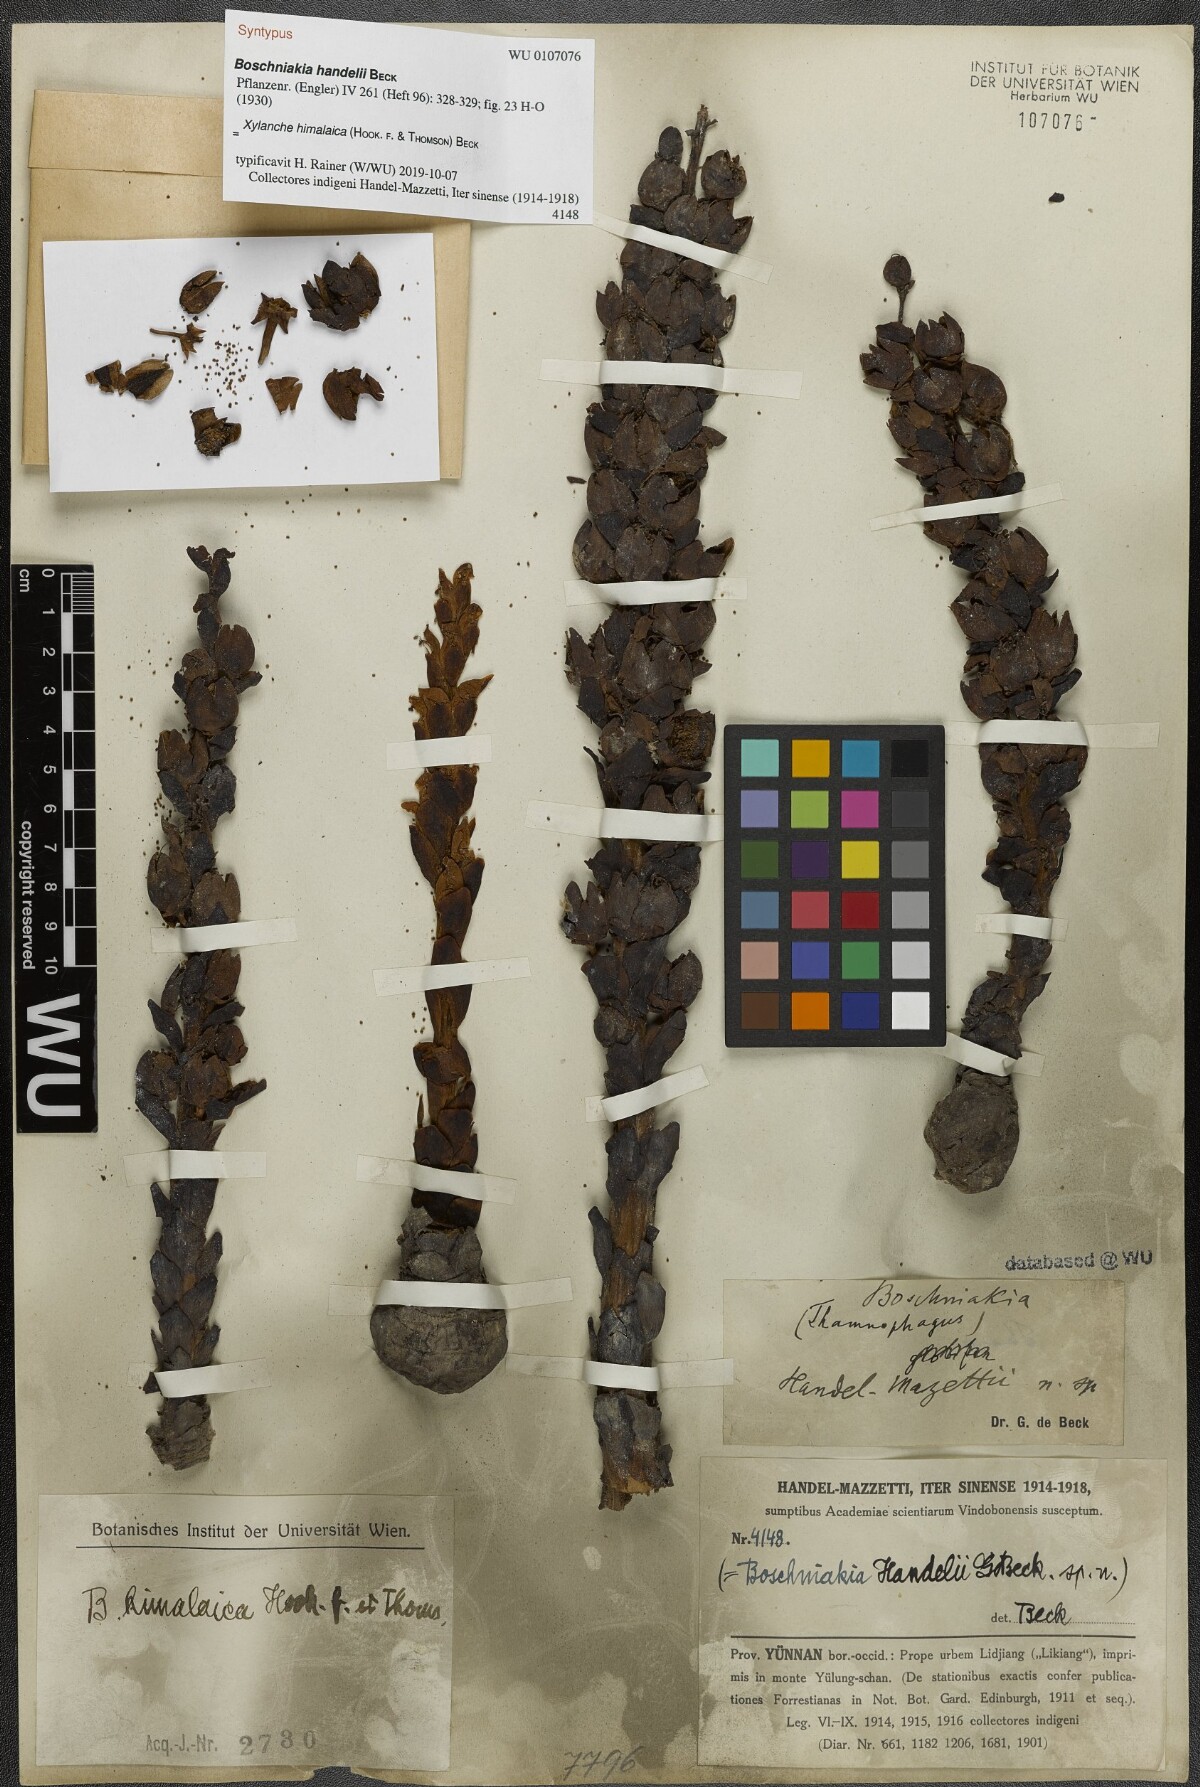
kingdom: Plantae
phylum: Tracheophyta
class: Magnoliopsida
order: Lamiales
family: Orobanchaceae
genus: Boschniakia
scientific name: Boschniakia himalaica
